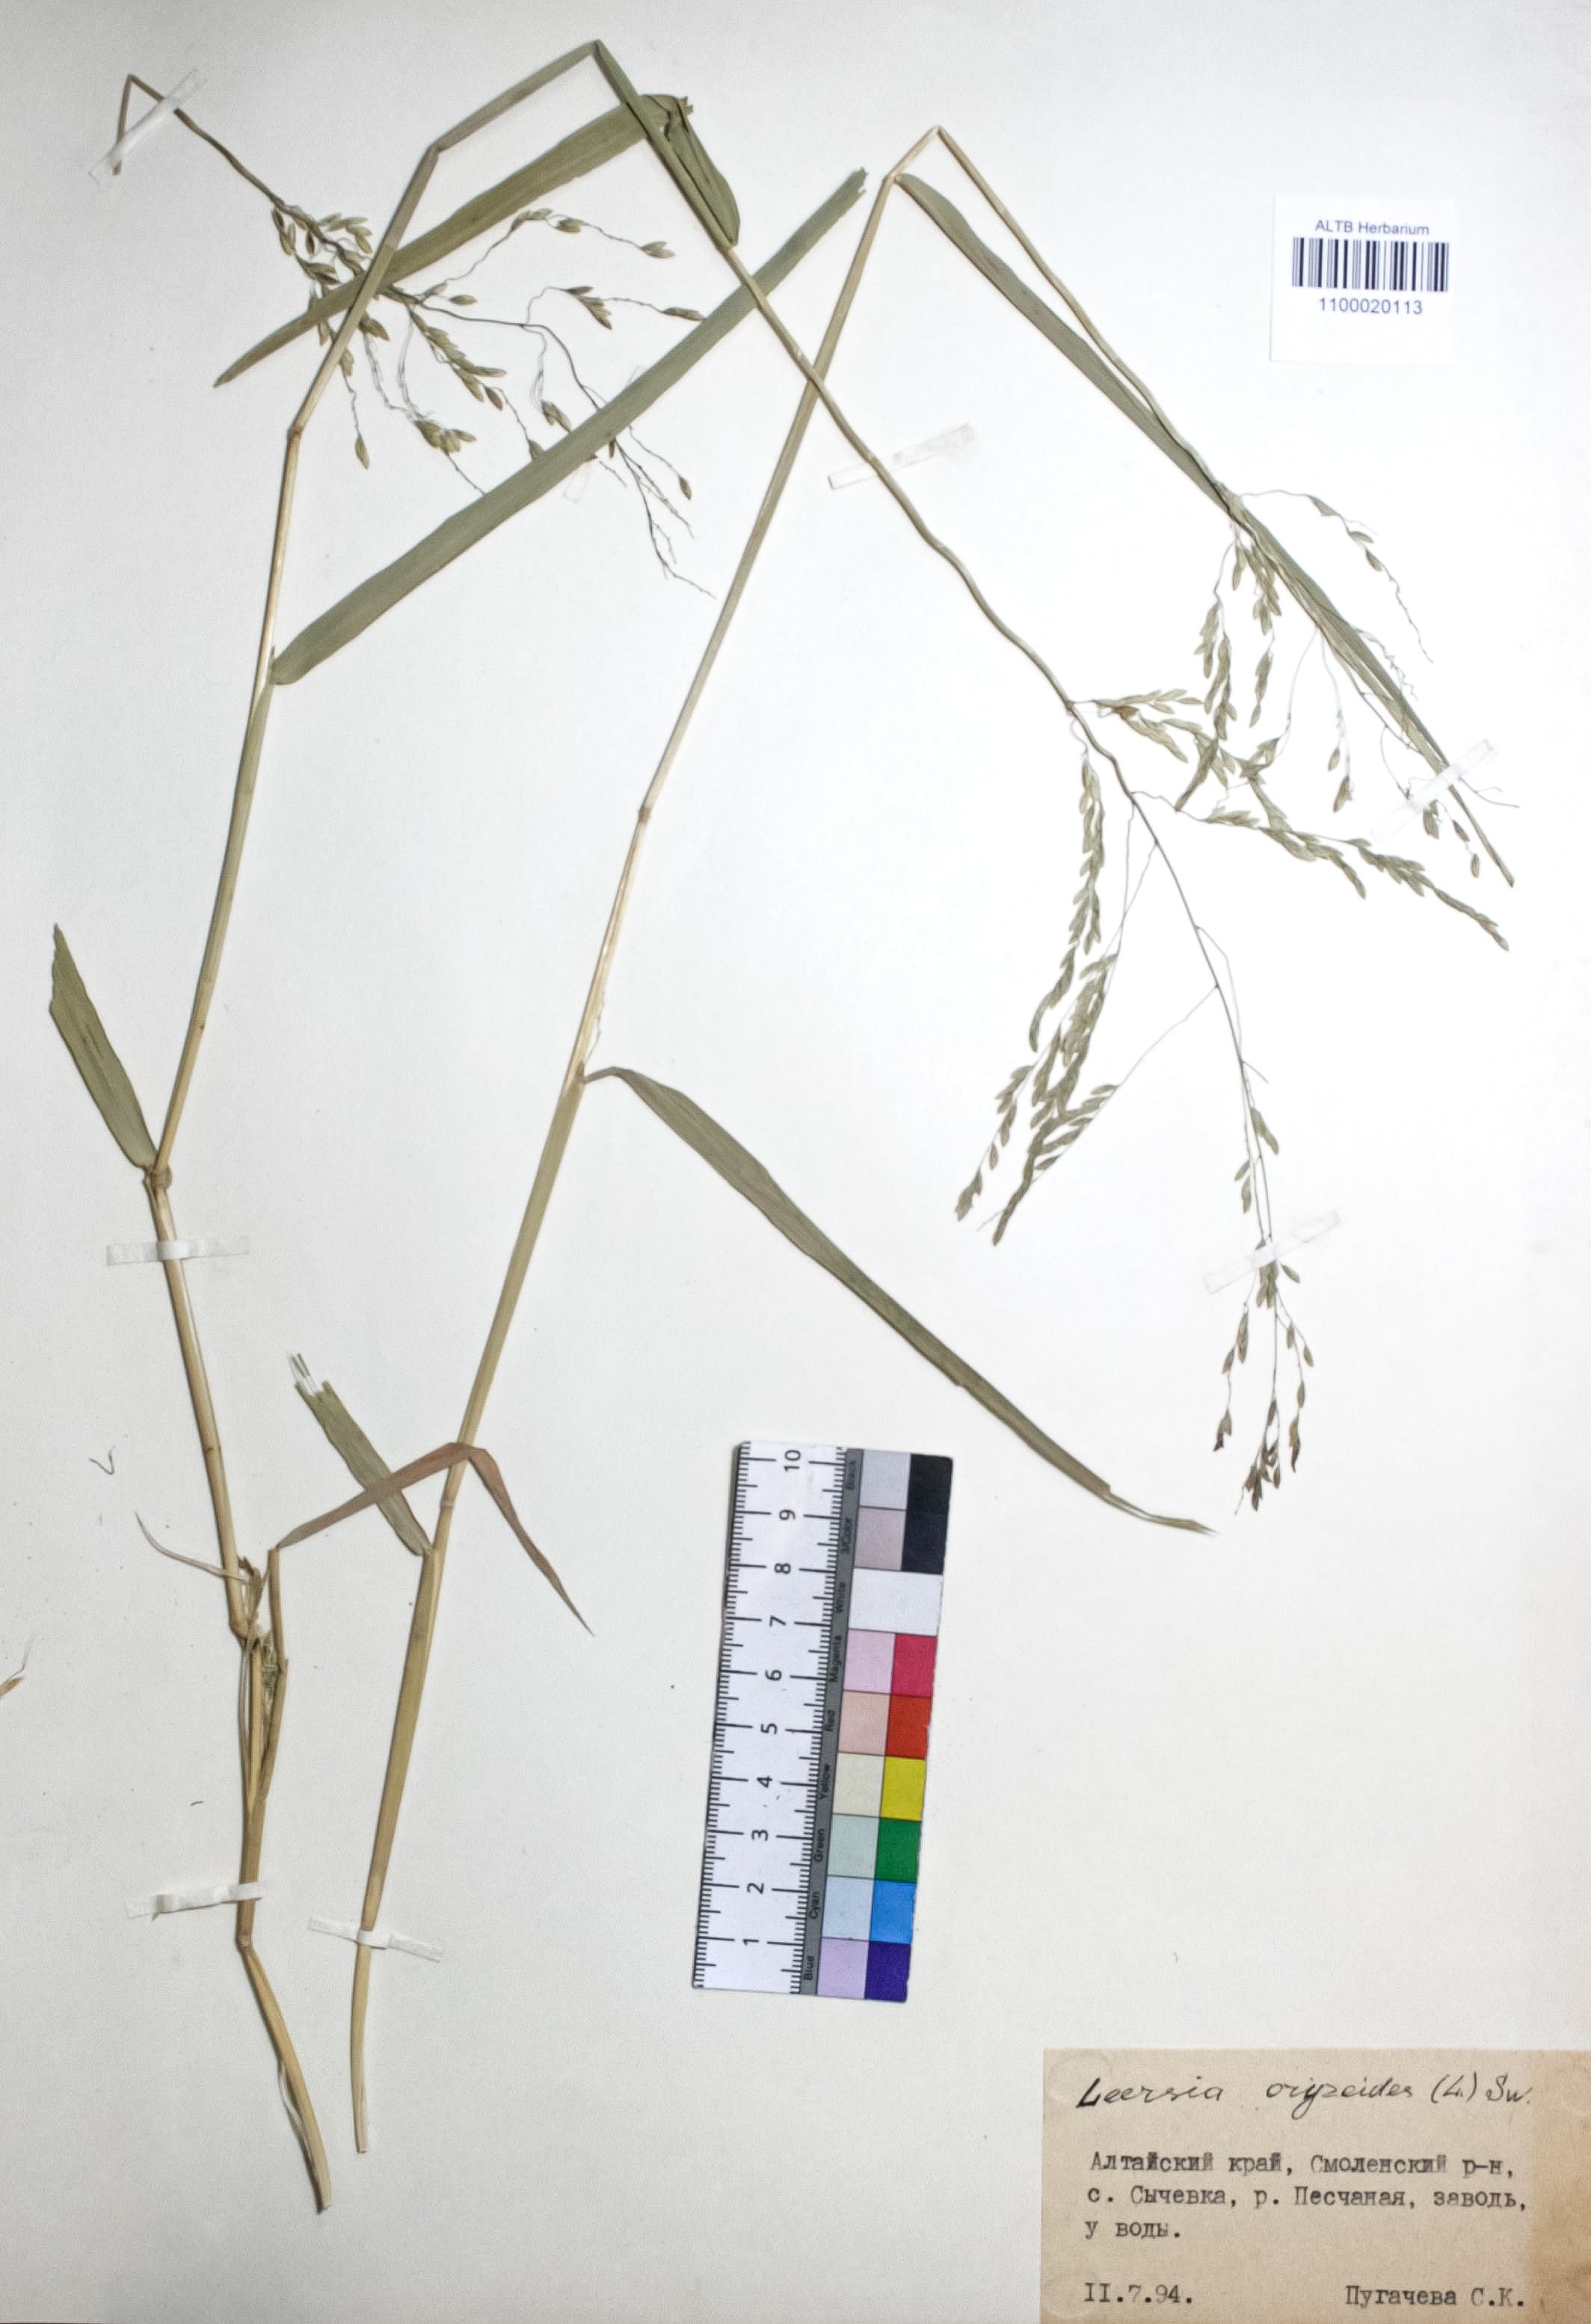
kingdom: Plantae
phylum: Tracheophyta
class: Liliopsida
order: Poales
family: Poaceae
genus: Leersia
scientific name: Leersia oryzoides
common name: Cut-grass
